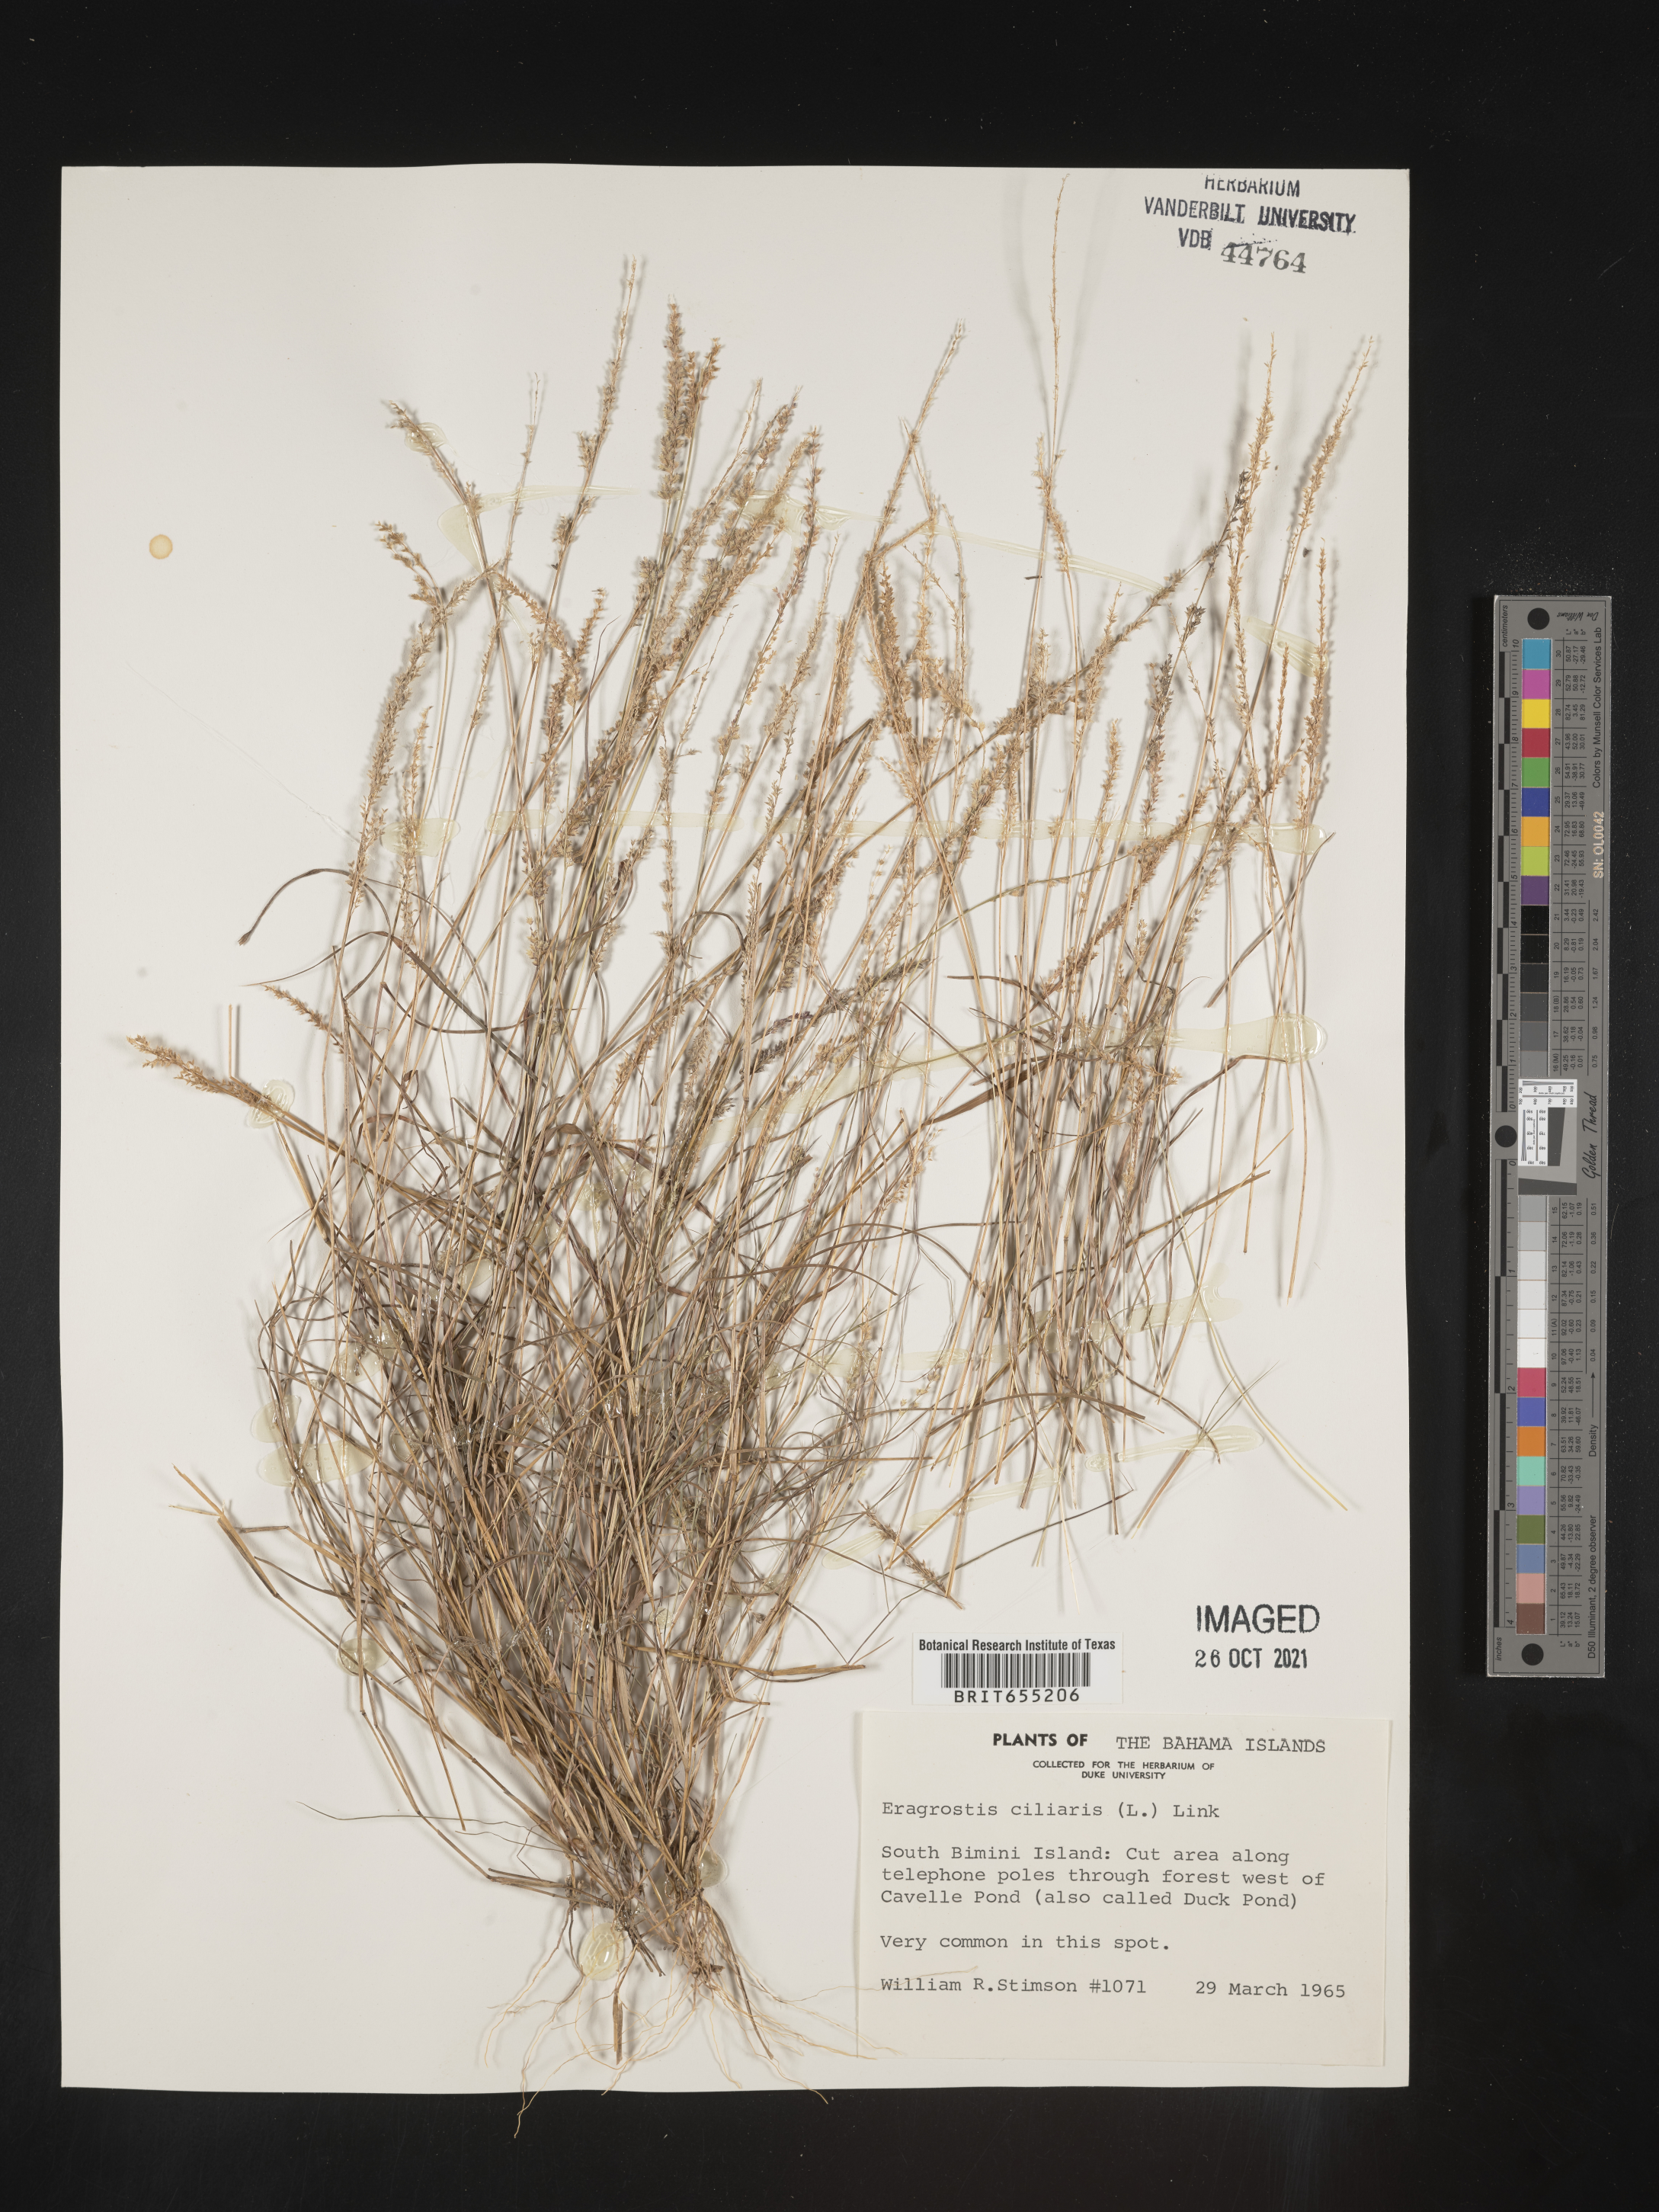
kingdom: Plantae
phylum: Tracheophyta
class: Liliopsida
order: Poales
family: Poaceae
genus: Eragrostis
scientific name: Eragrostis
